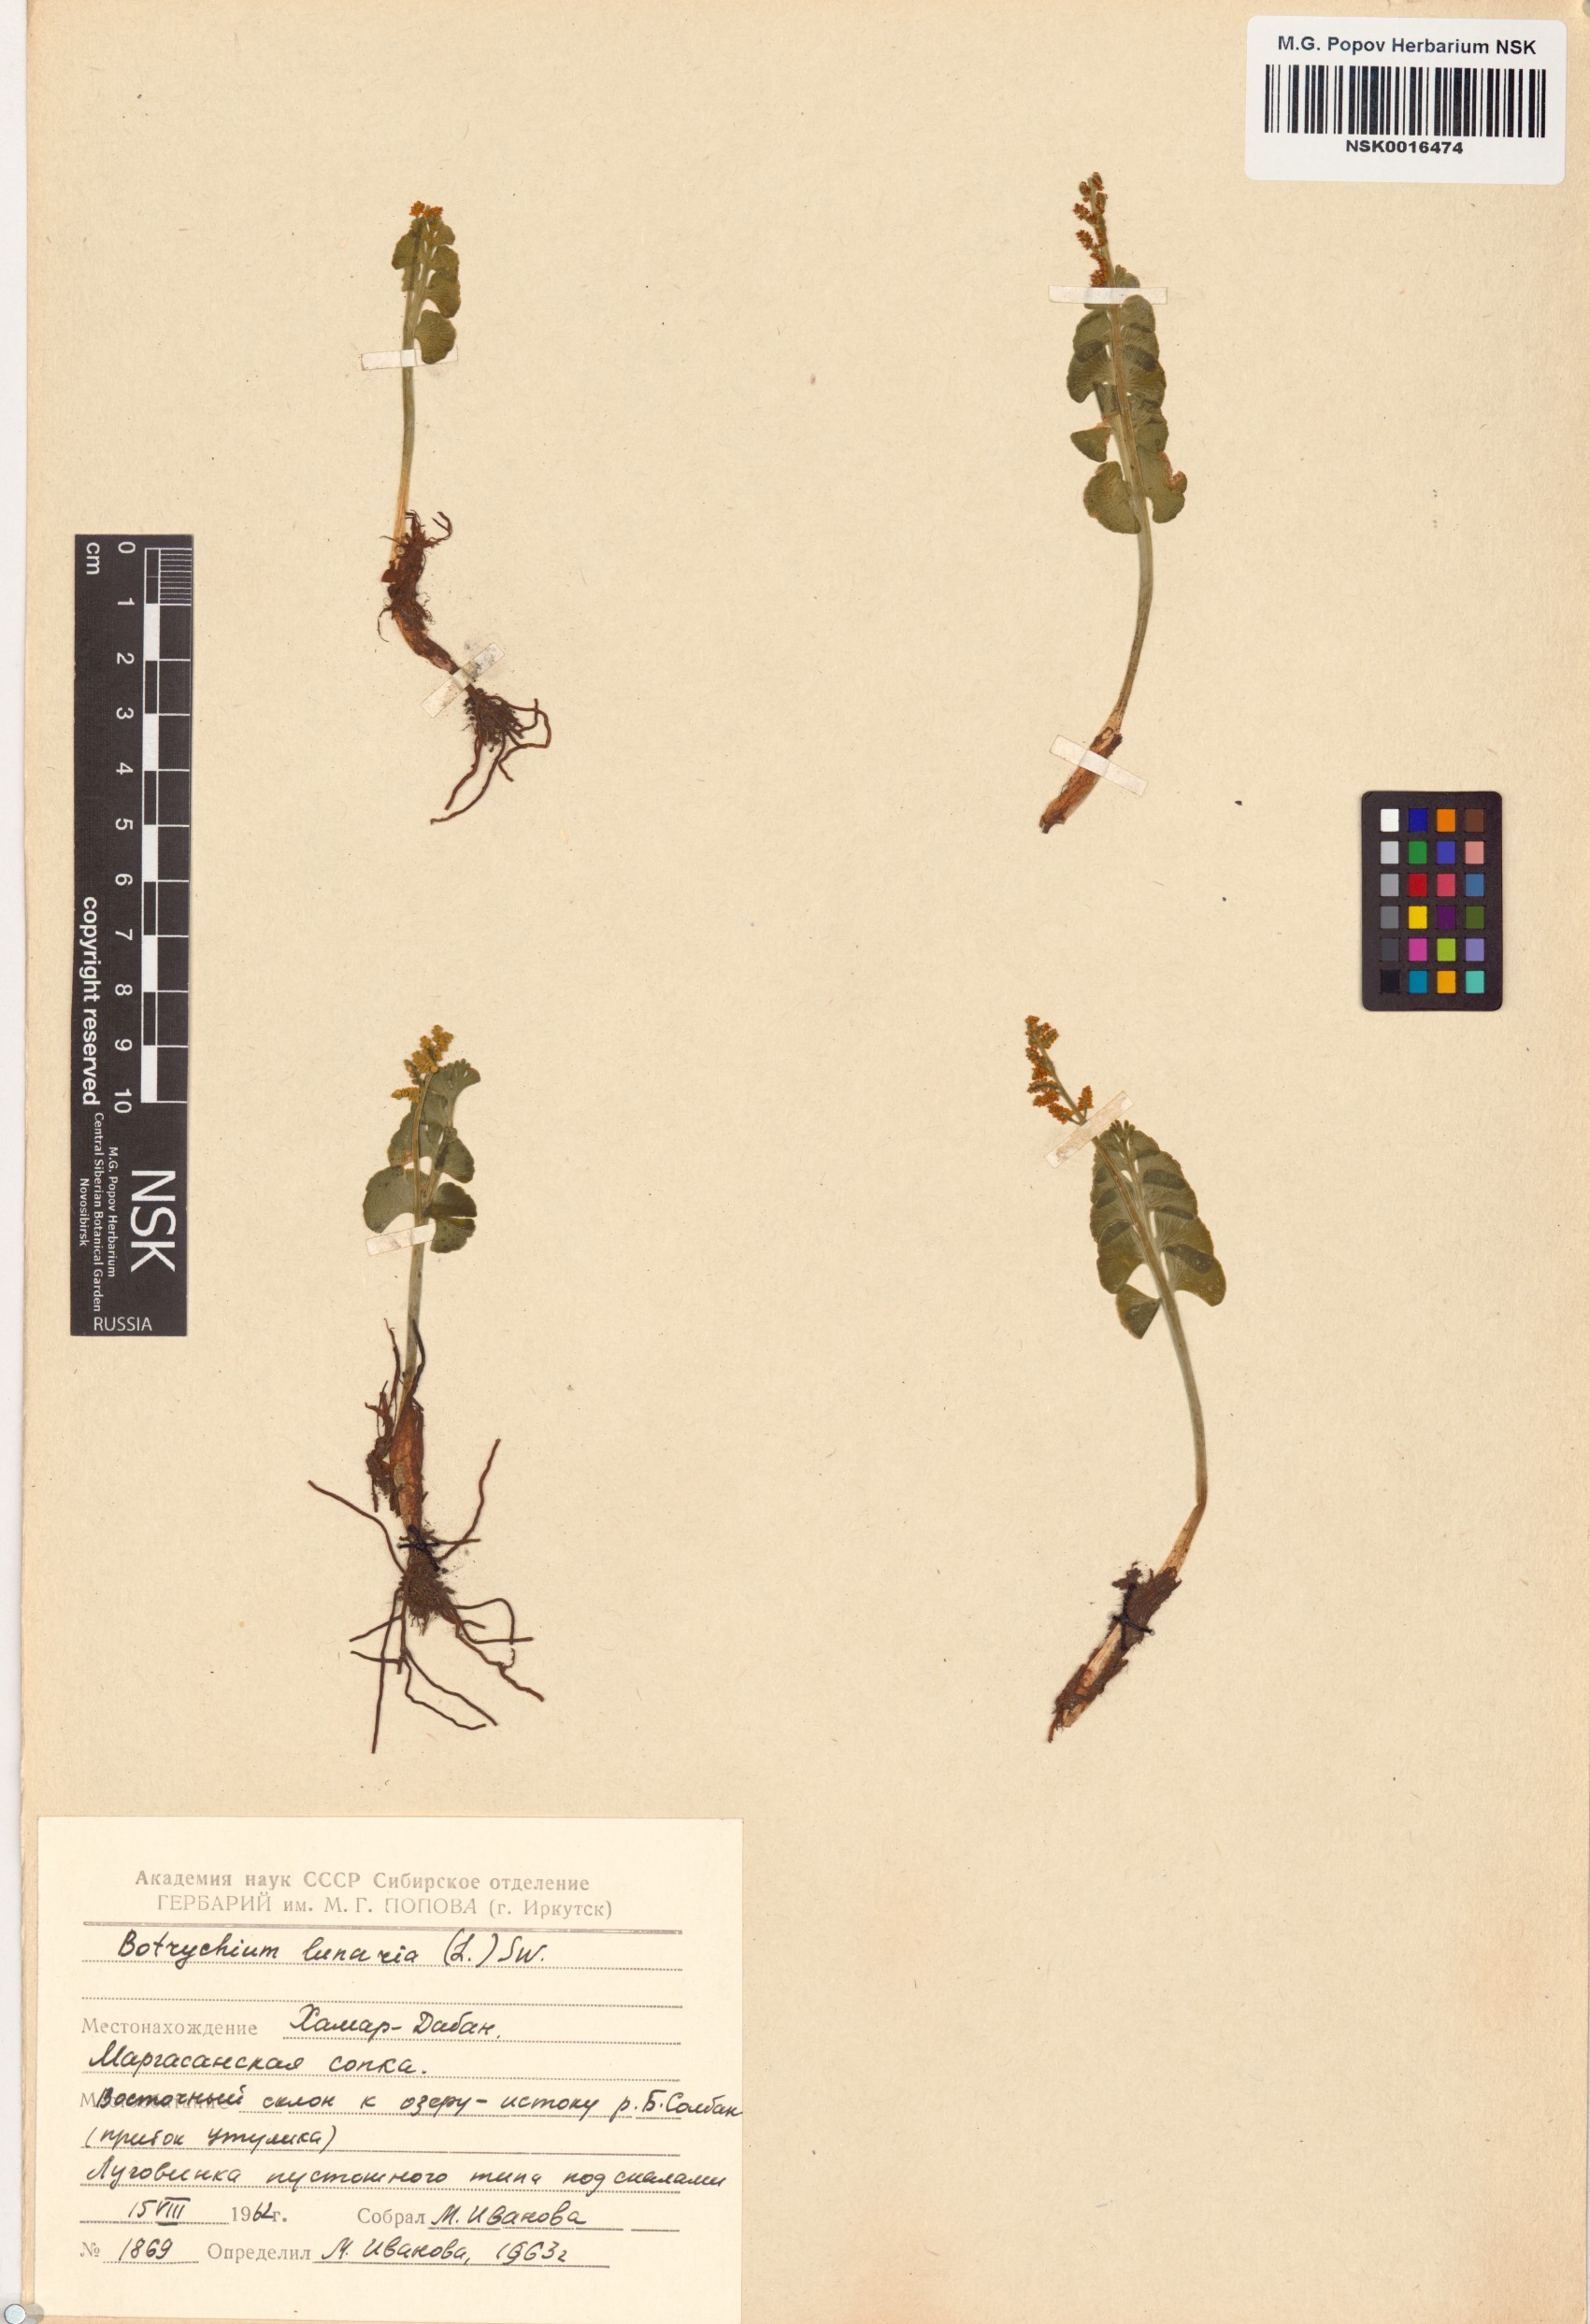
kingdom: Plantae
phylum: Tracheophyta
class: Polypodiopsida
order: Ophioglossales
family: Ophioglossaceae
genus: Botrychium
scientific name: Botrychium lunaria
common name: Moonwort
